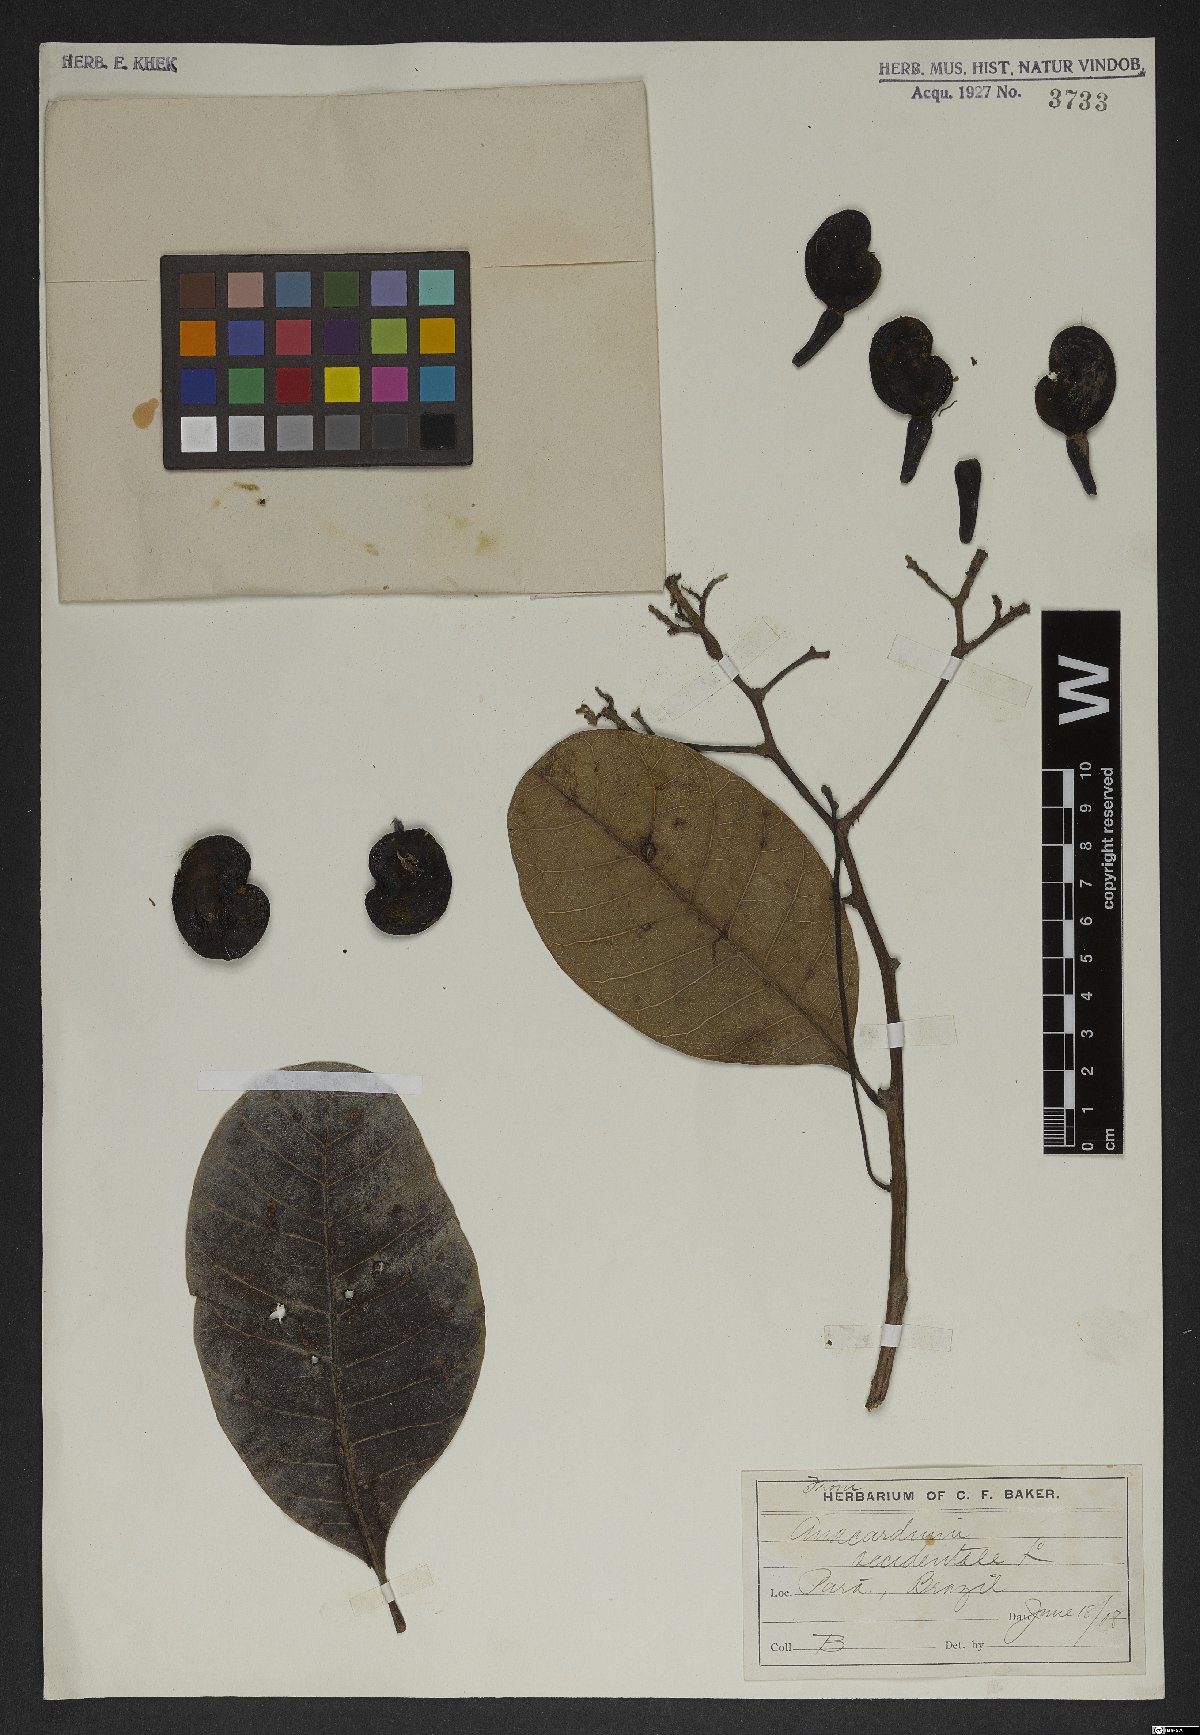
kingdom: Plantae
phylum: Tracheophyta
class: Magnoliopsida
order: Sapindales
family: Anacardiaceae
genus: Anacardium
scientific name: Anacardium occidentale
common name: Cashew
